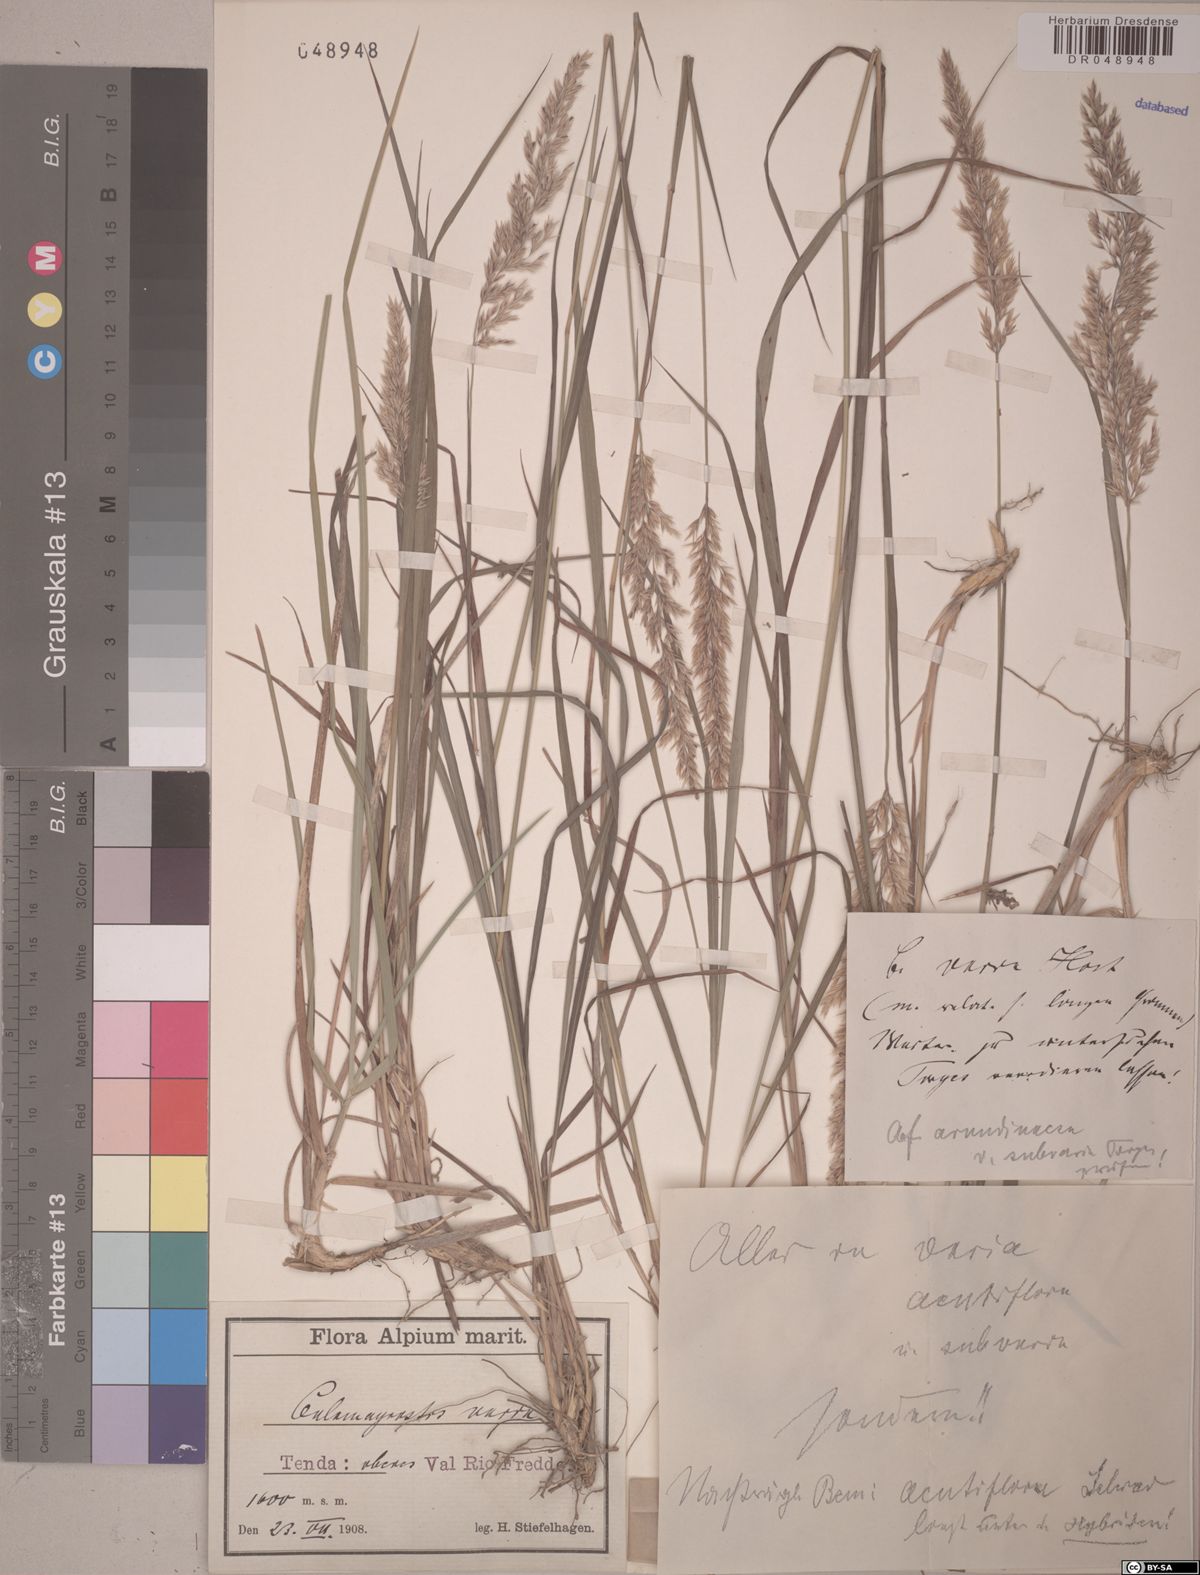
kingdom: Plantae
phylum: Tracheophyta
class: Liliopsida
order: Poales
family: Poaceae
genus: Calamagrostis
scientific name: Calamagrostis varia
